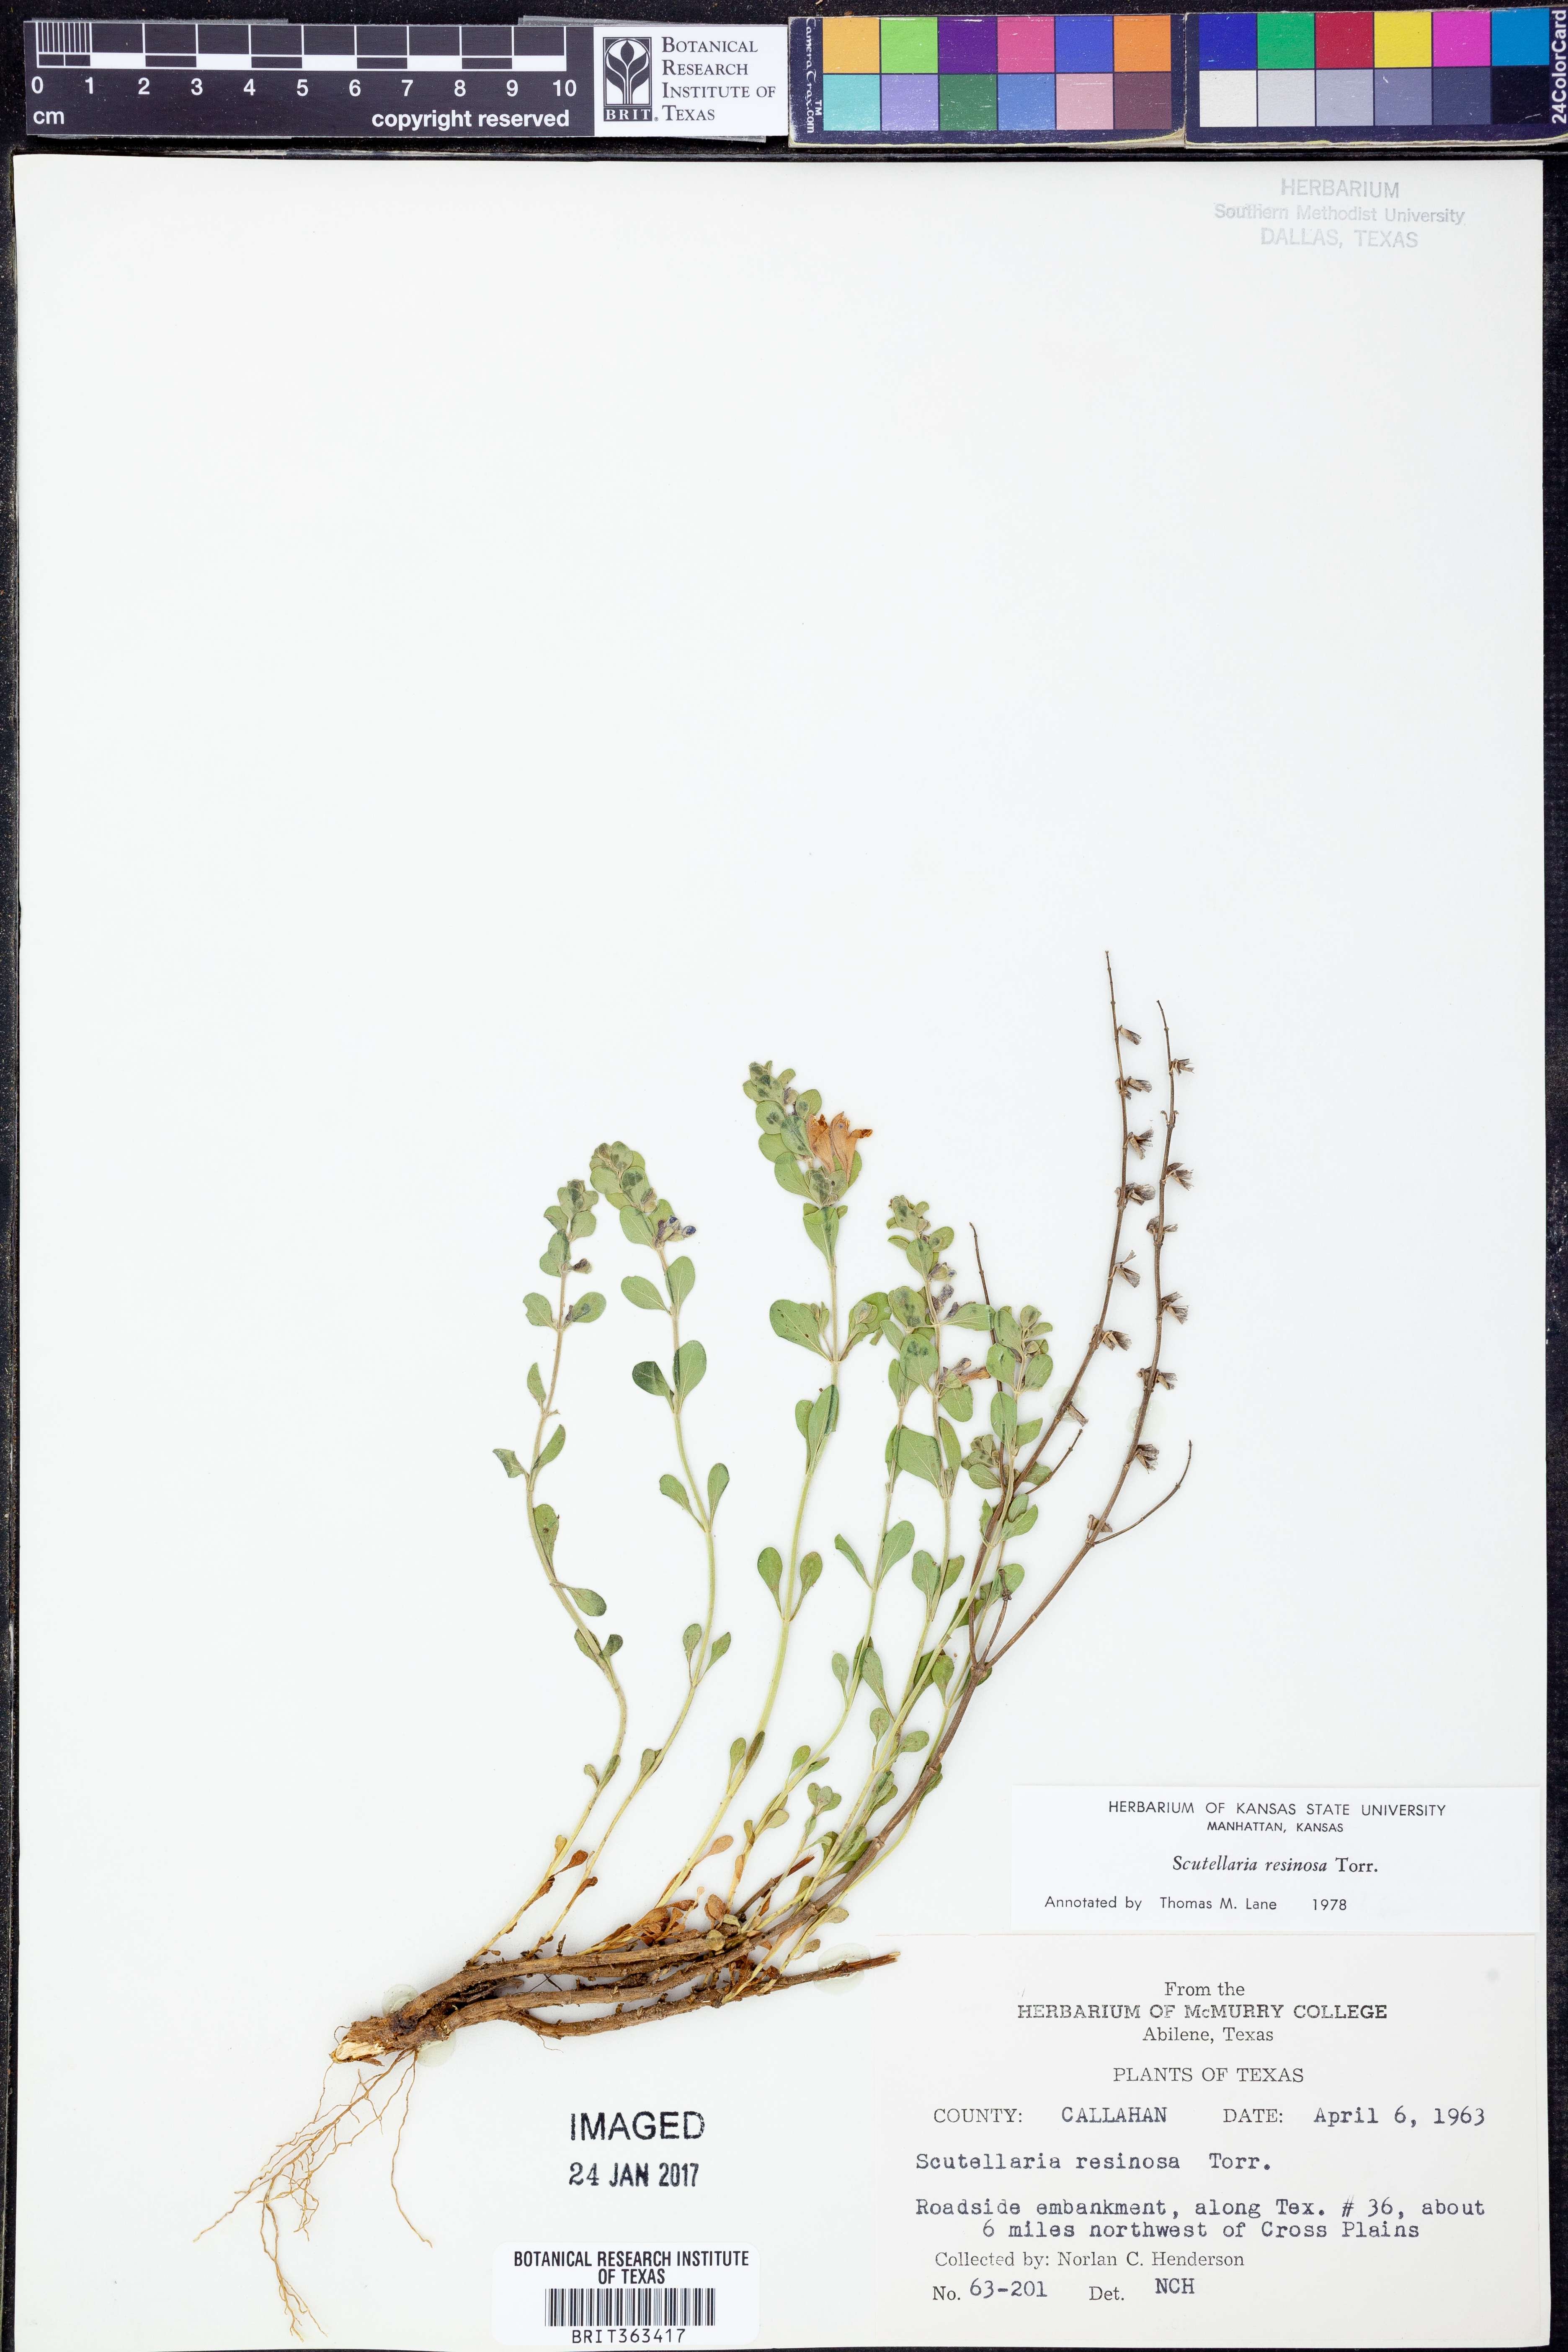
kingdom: Plantae
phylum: Tracheophyta
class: Magnoliopsida
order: Lamiales
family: Lamiaceae
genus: Scutellaria
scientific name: Scutellaria resinosa
